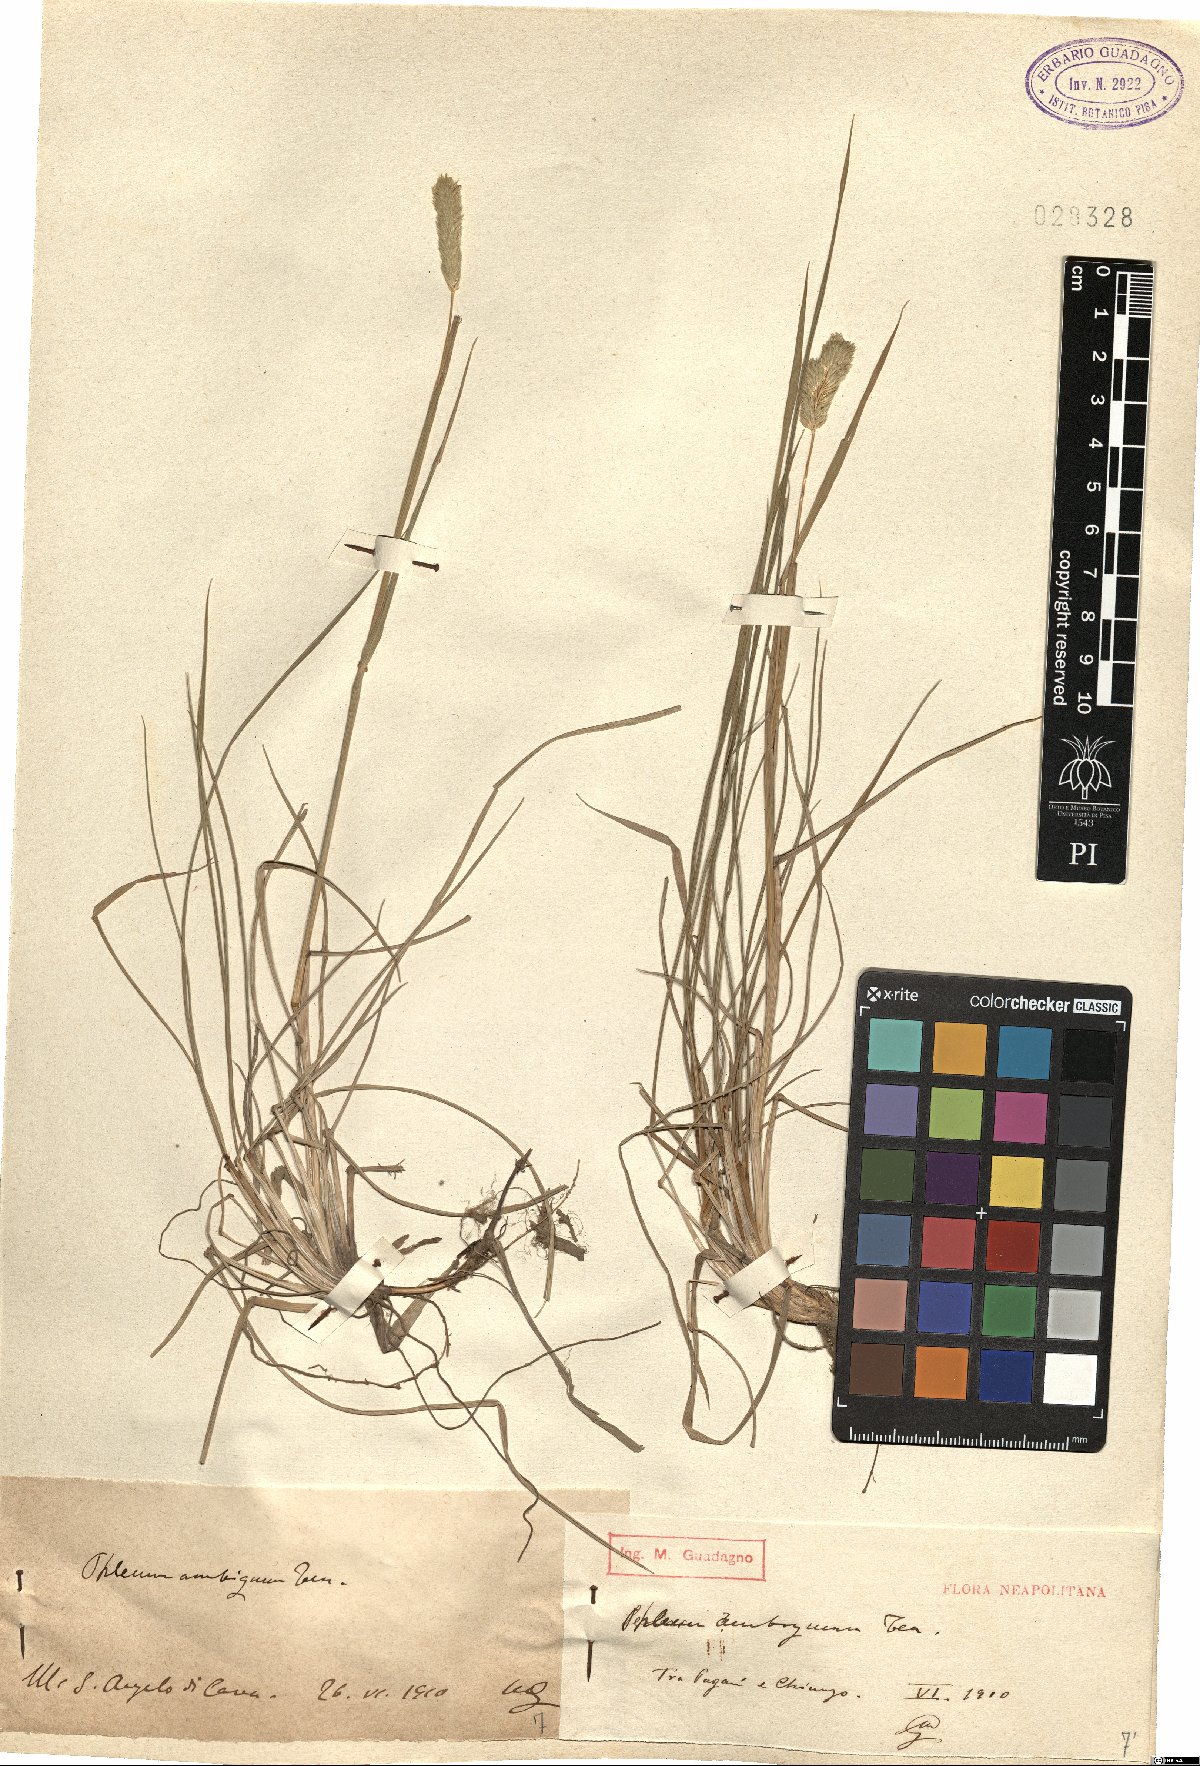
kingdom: Plantae
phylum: Tracheophyta
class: Liliopsida
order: Poales
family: Poaceae
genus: Phleum
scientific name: Phleum hirsutum
